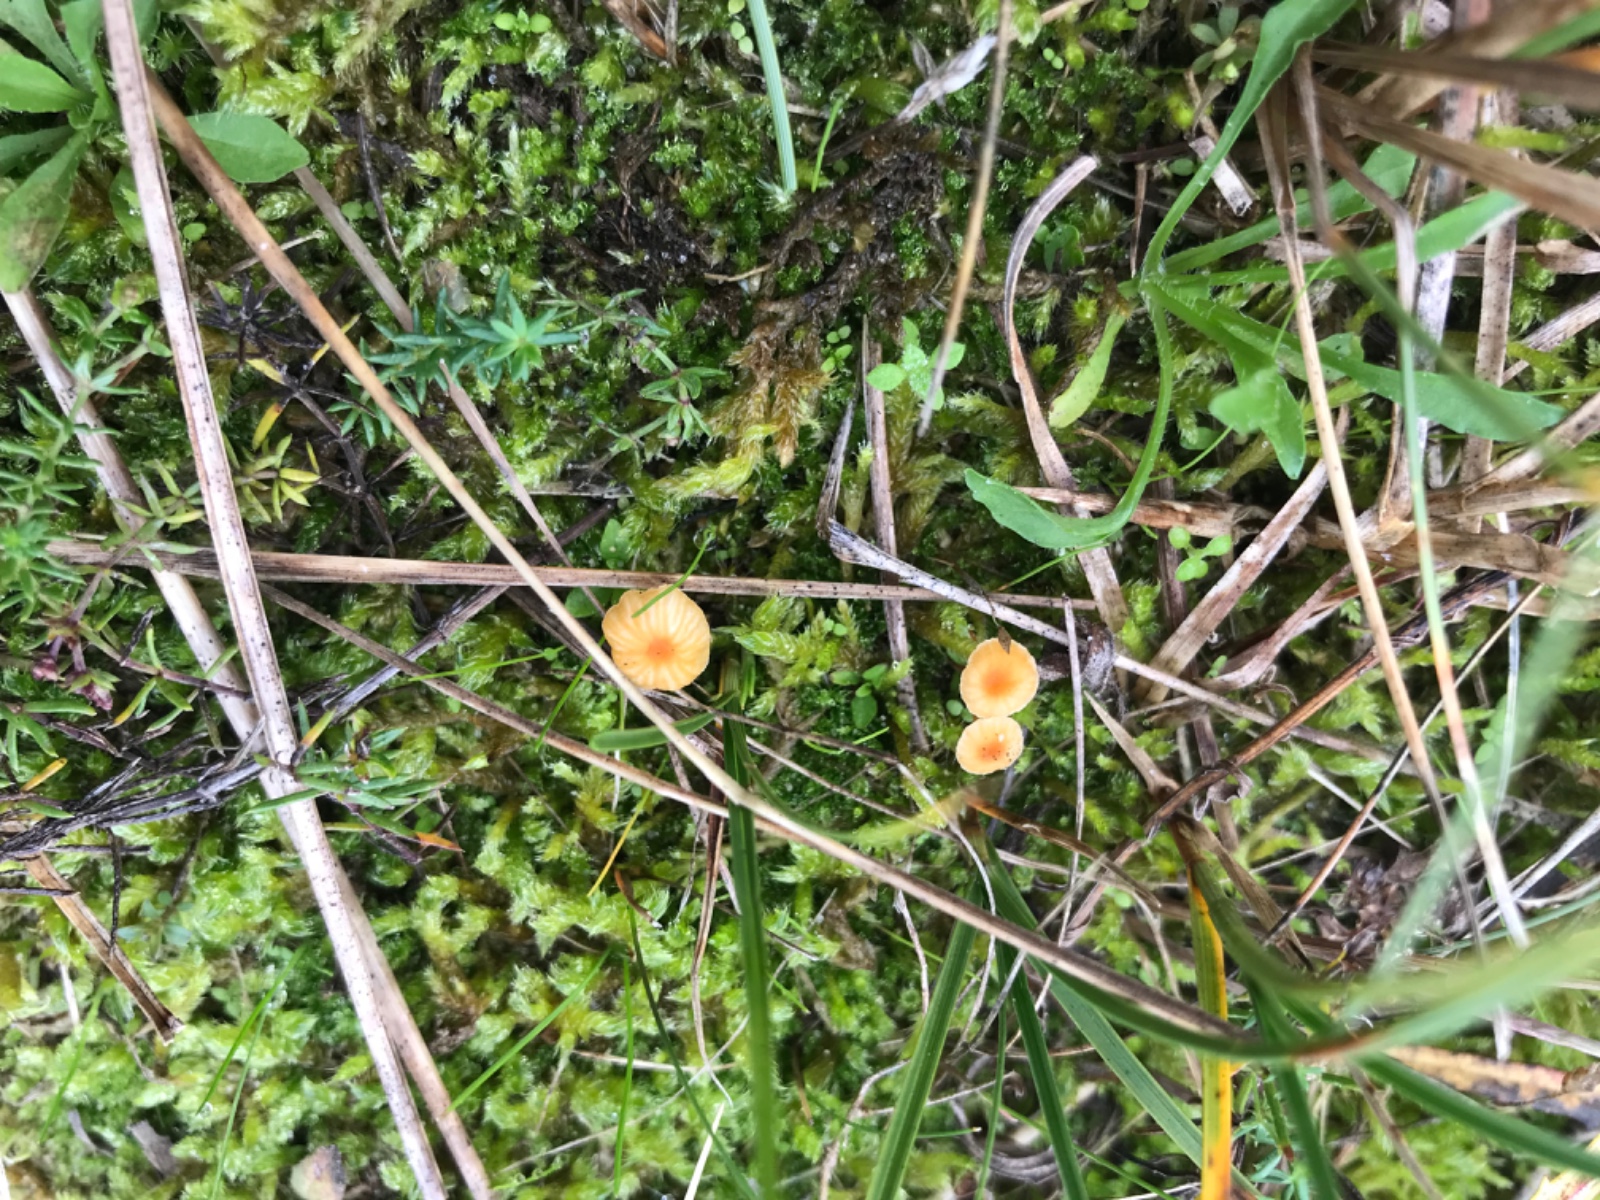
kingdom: Fungi
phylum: Basidiomycota
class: Agaricomycetes
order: Hymenochaetales
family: Rickenellaceae
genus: Rickenella
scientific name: Rickenella fibula
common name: orange mosnavlehat
